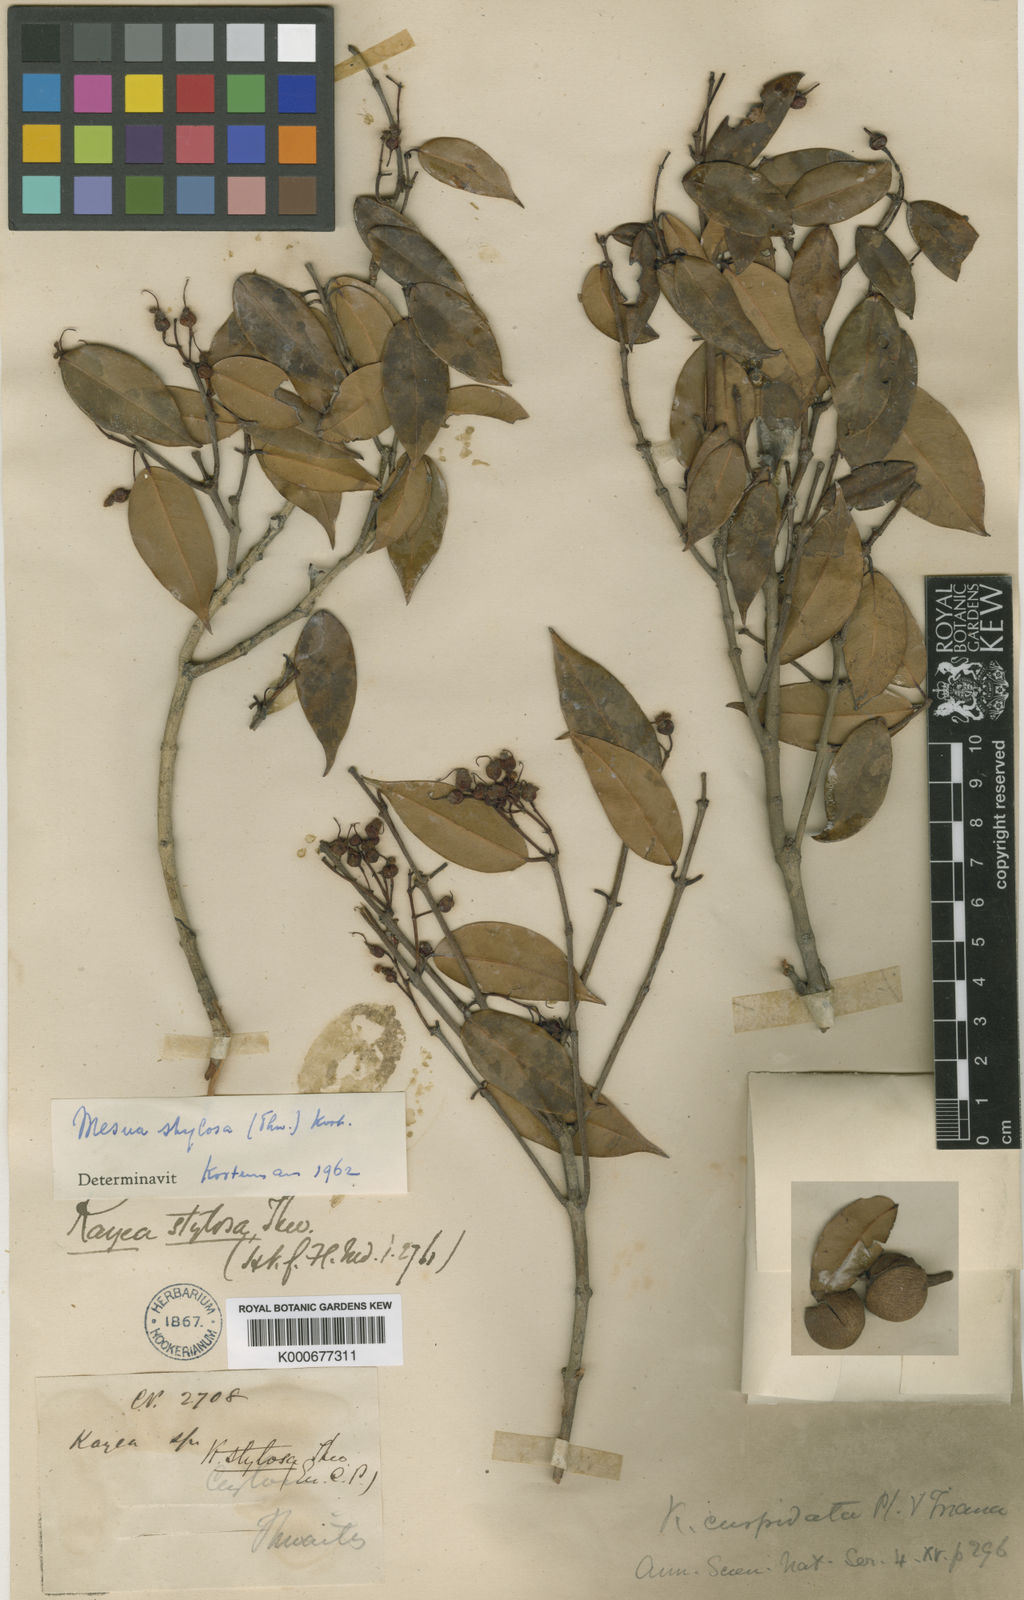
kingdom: Plantae
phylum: Tracheophyta
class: Magnoliopsida
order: Malpighiales
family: Calophyllaceae
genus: Kayea
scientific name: Kayea stylosa
